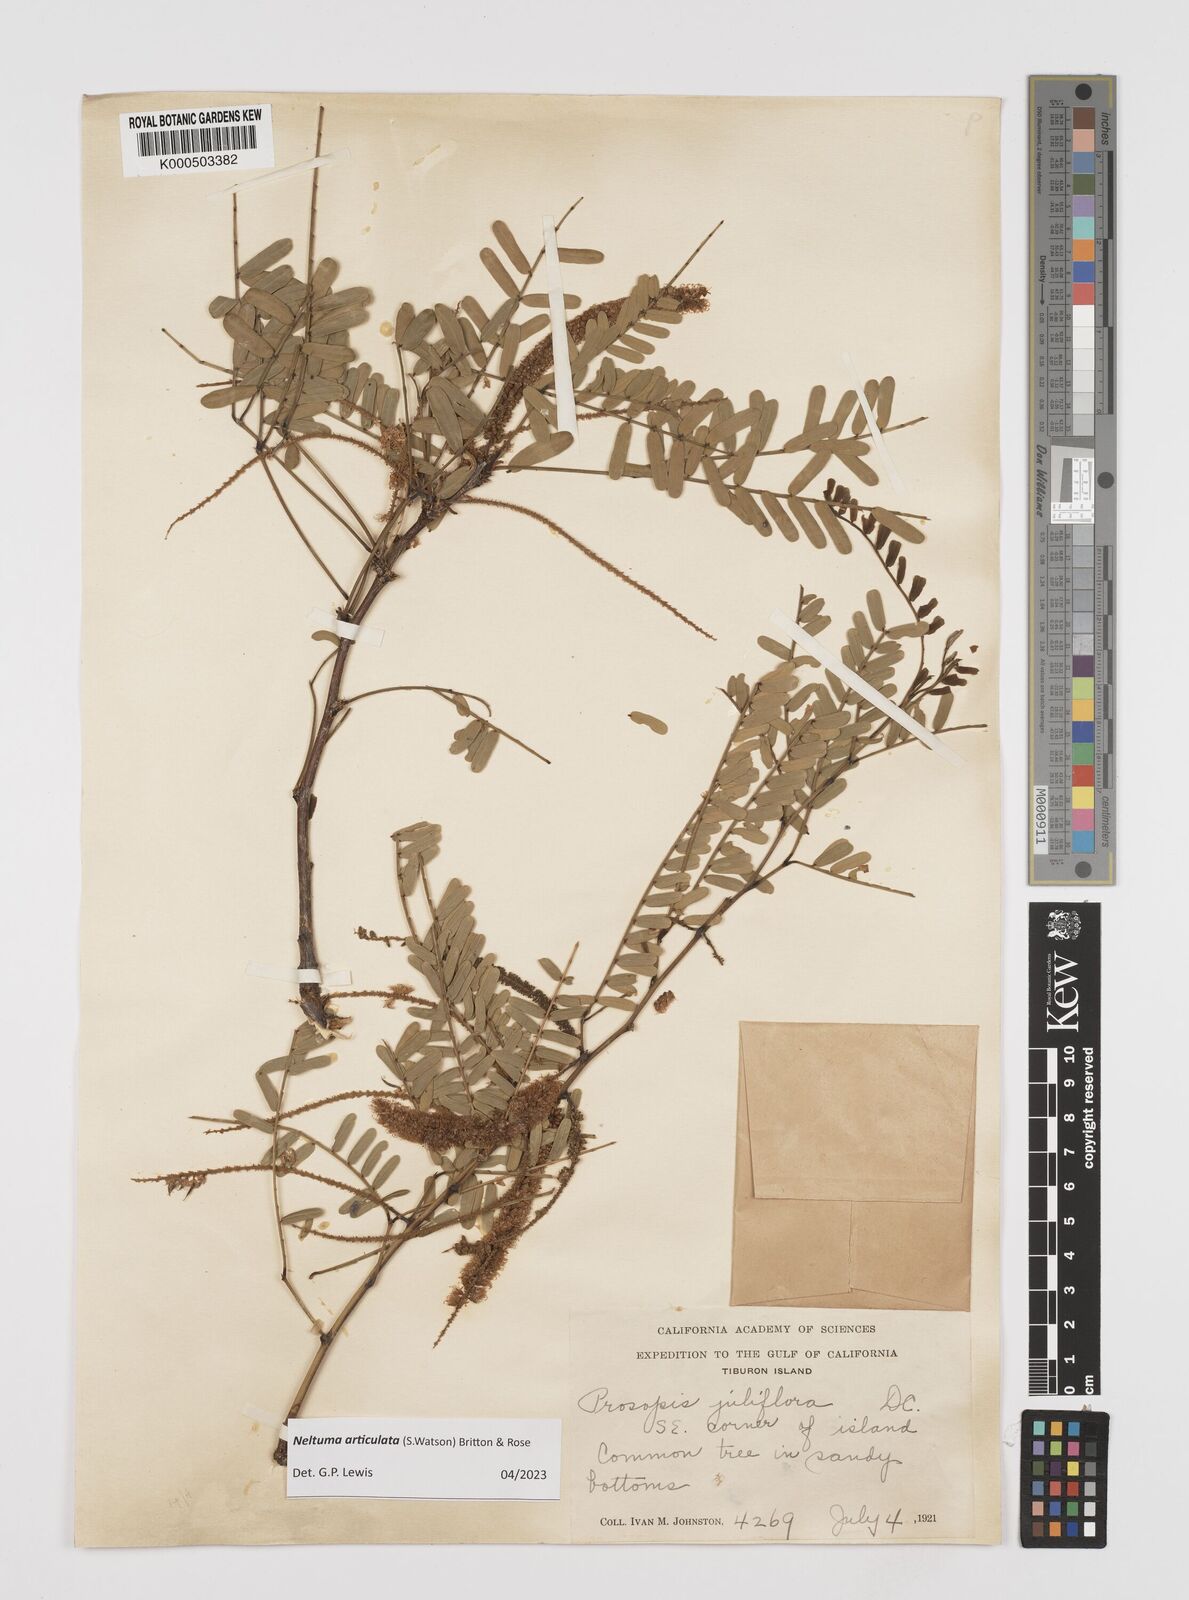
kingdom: Plantae
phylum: Tracheophyta
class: Magnoliopsida
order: Fabales
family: Fabaceae
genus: Prosopis
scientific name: Prosopis articulata
